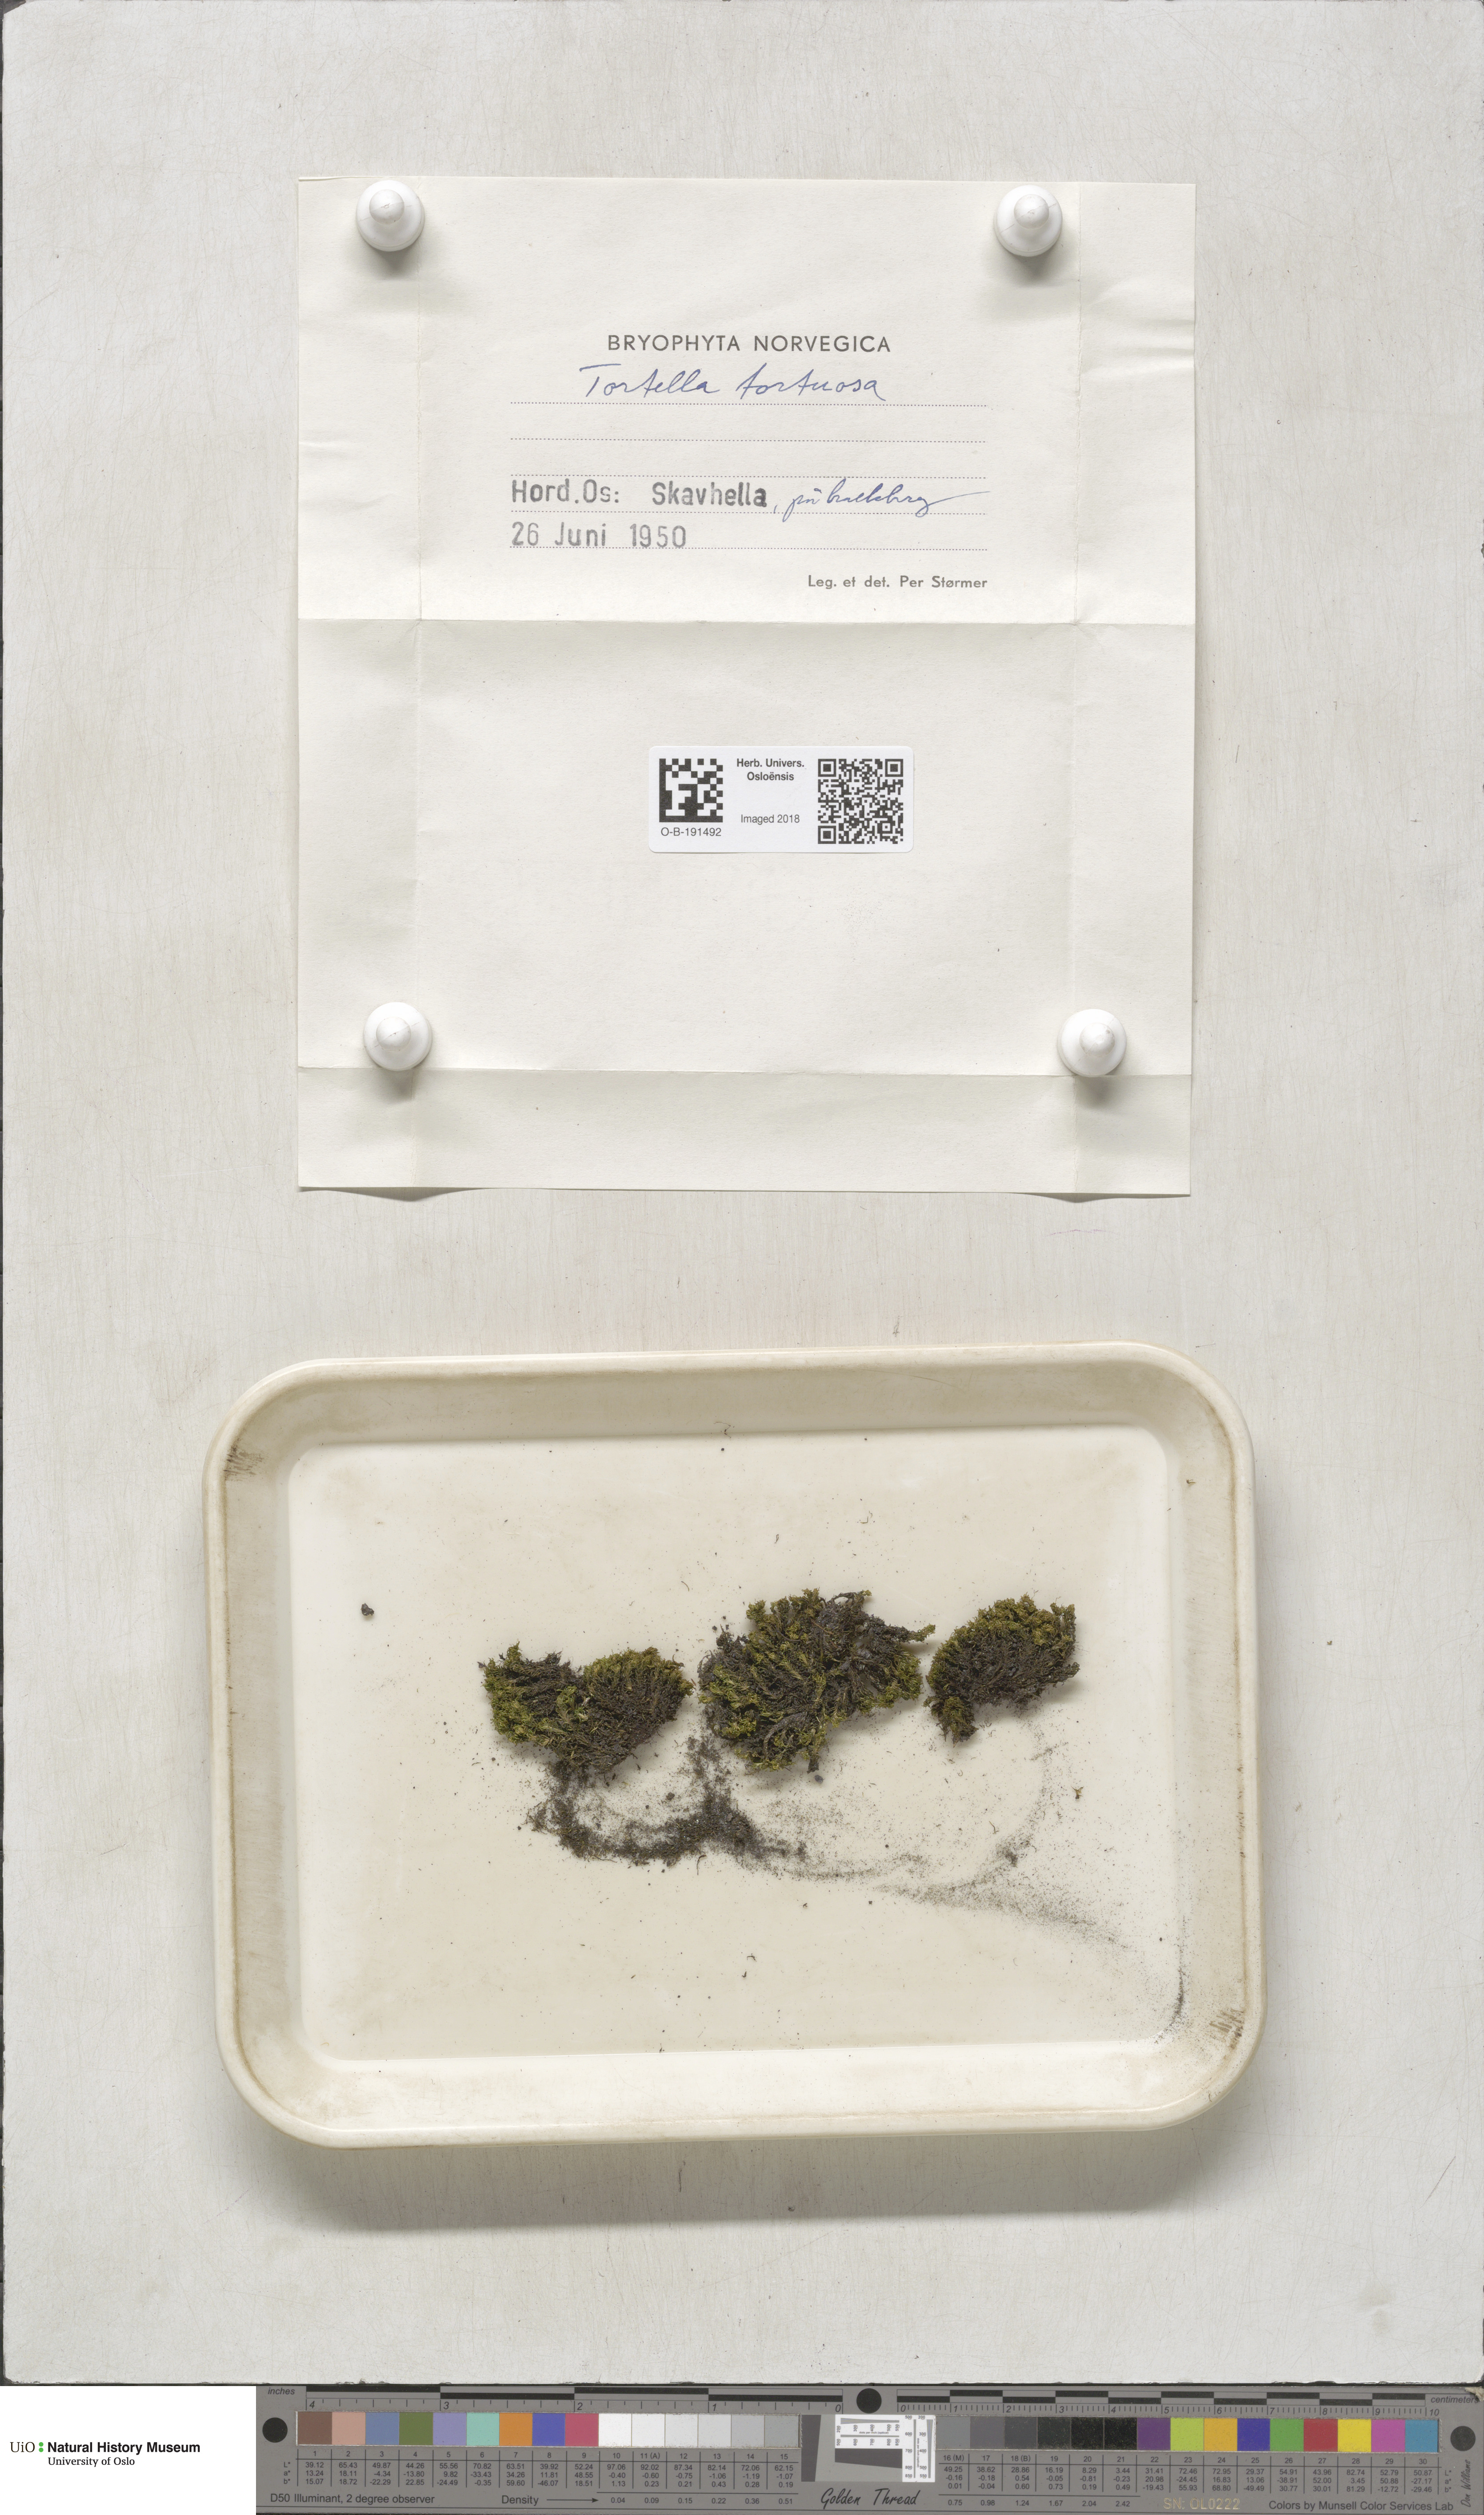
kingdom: Plantae
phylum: Bryophyta
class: Bryopsida
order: Pottiales
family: Pottiaceae
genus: Tortella
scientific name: Tortella tortuosa
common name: Frizzled crisp moss
